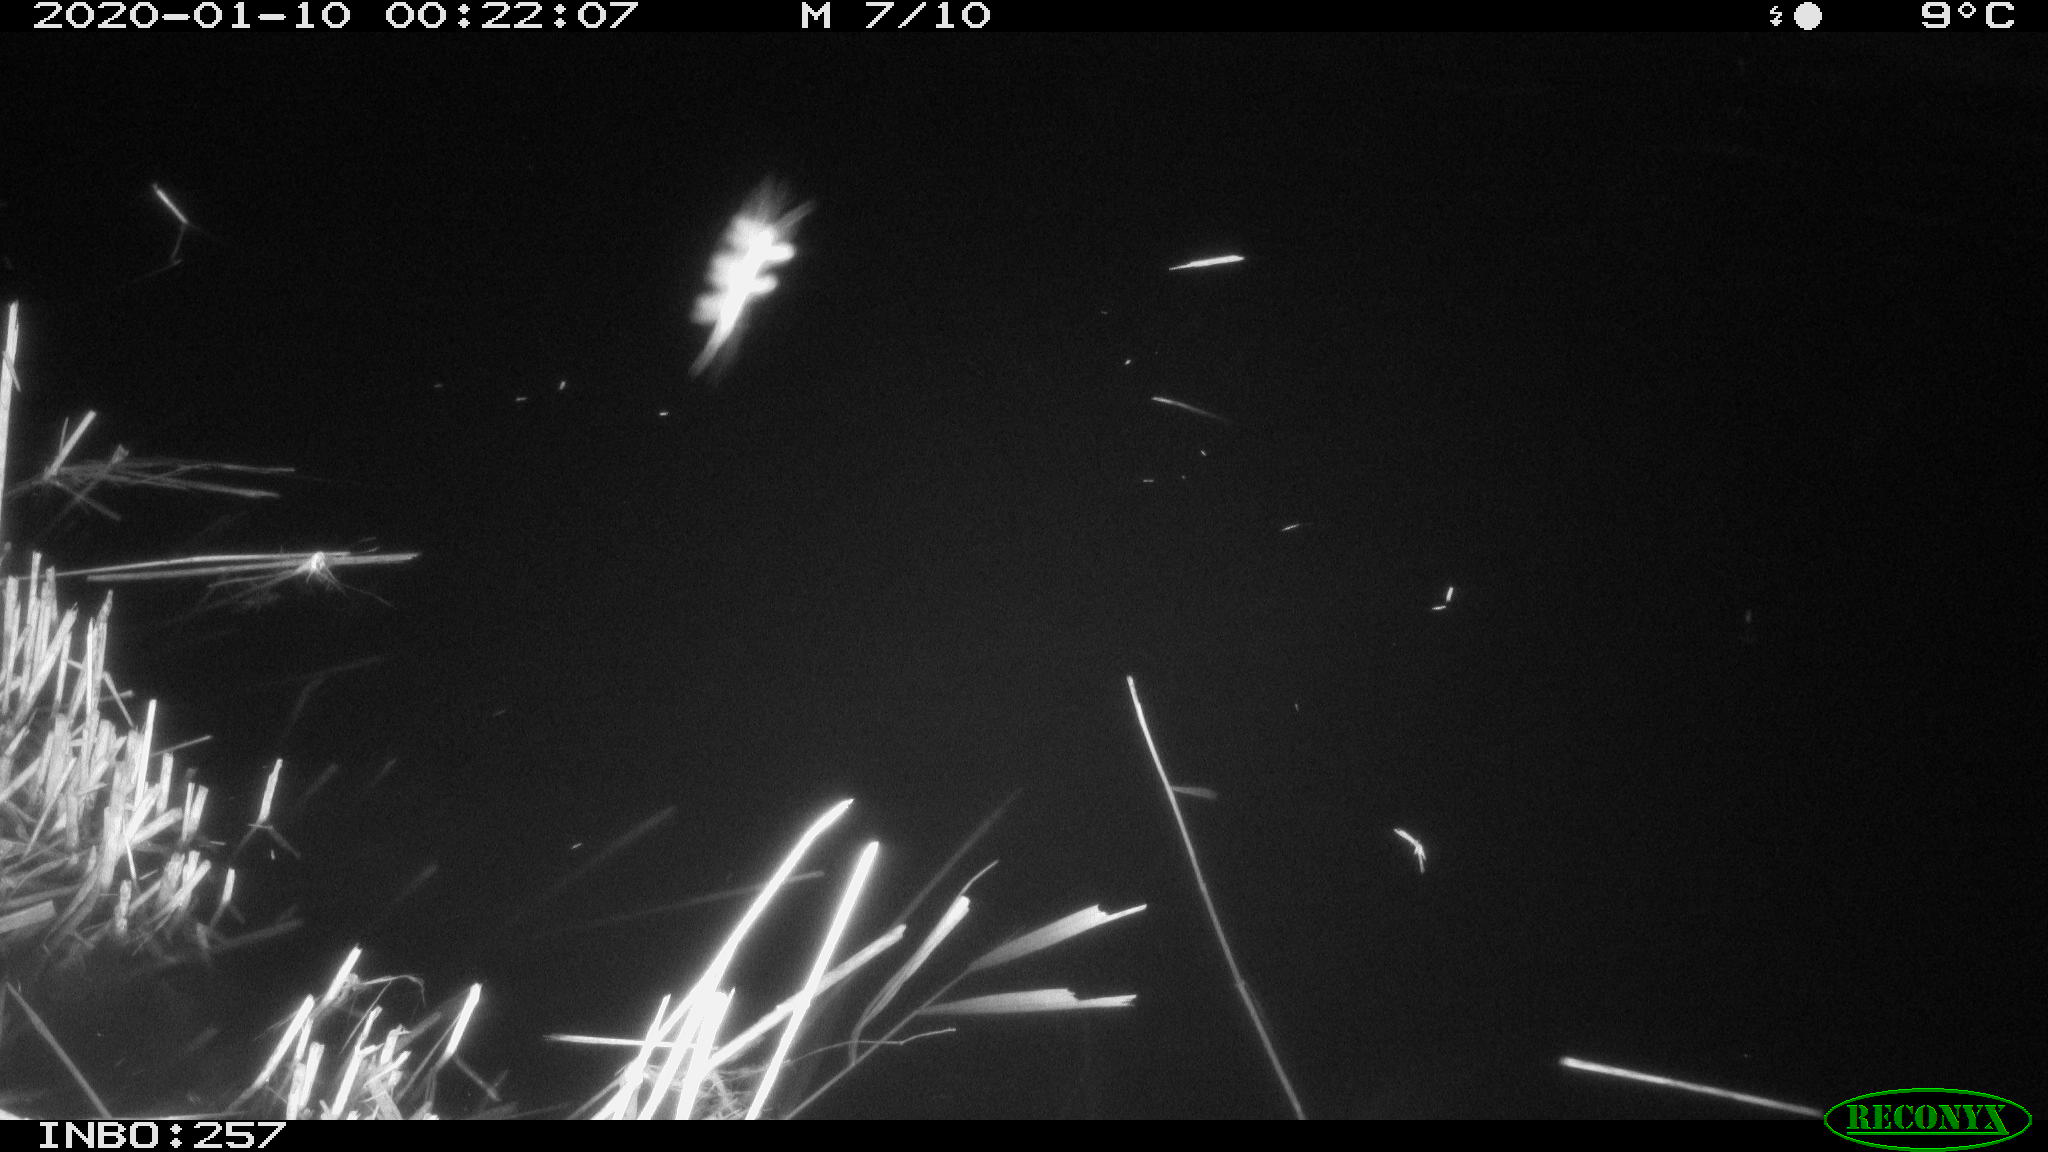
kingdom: Animalia
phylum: Chordata
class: Aves
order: Anseriformes
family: Anatidae
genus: Anas
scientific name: Anas platyrhynchos
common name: Mallard
